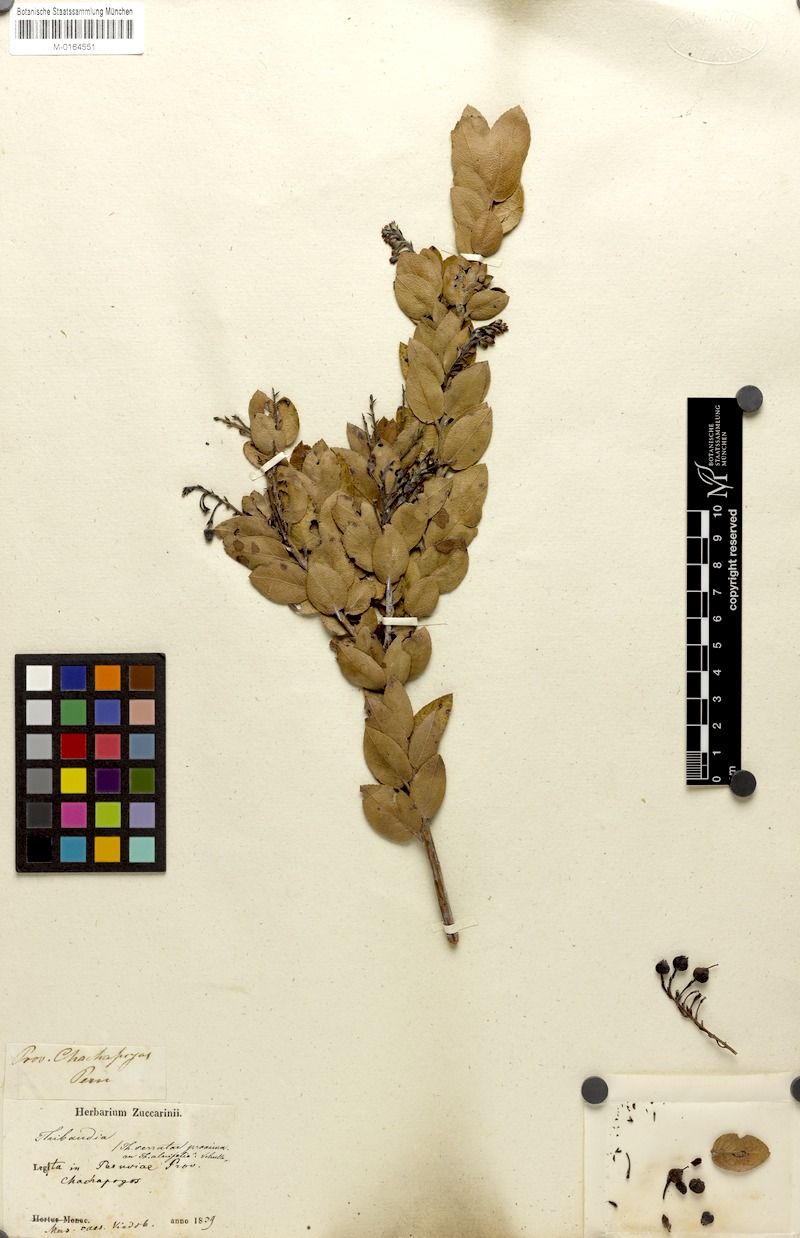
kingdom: Plantae
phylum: Tracheophyta
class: Magnoliopsida
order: Ericales
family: Ericaceae
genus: Vaccinium
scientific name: Vaccinium mathewsii
